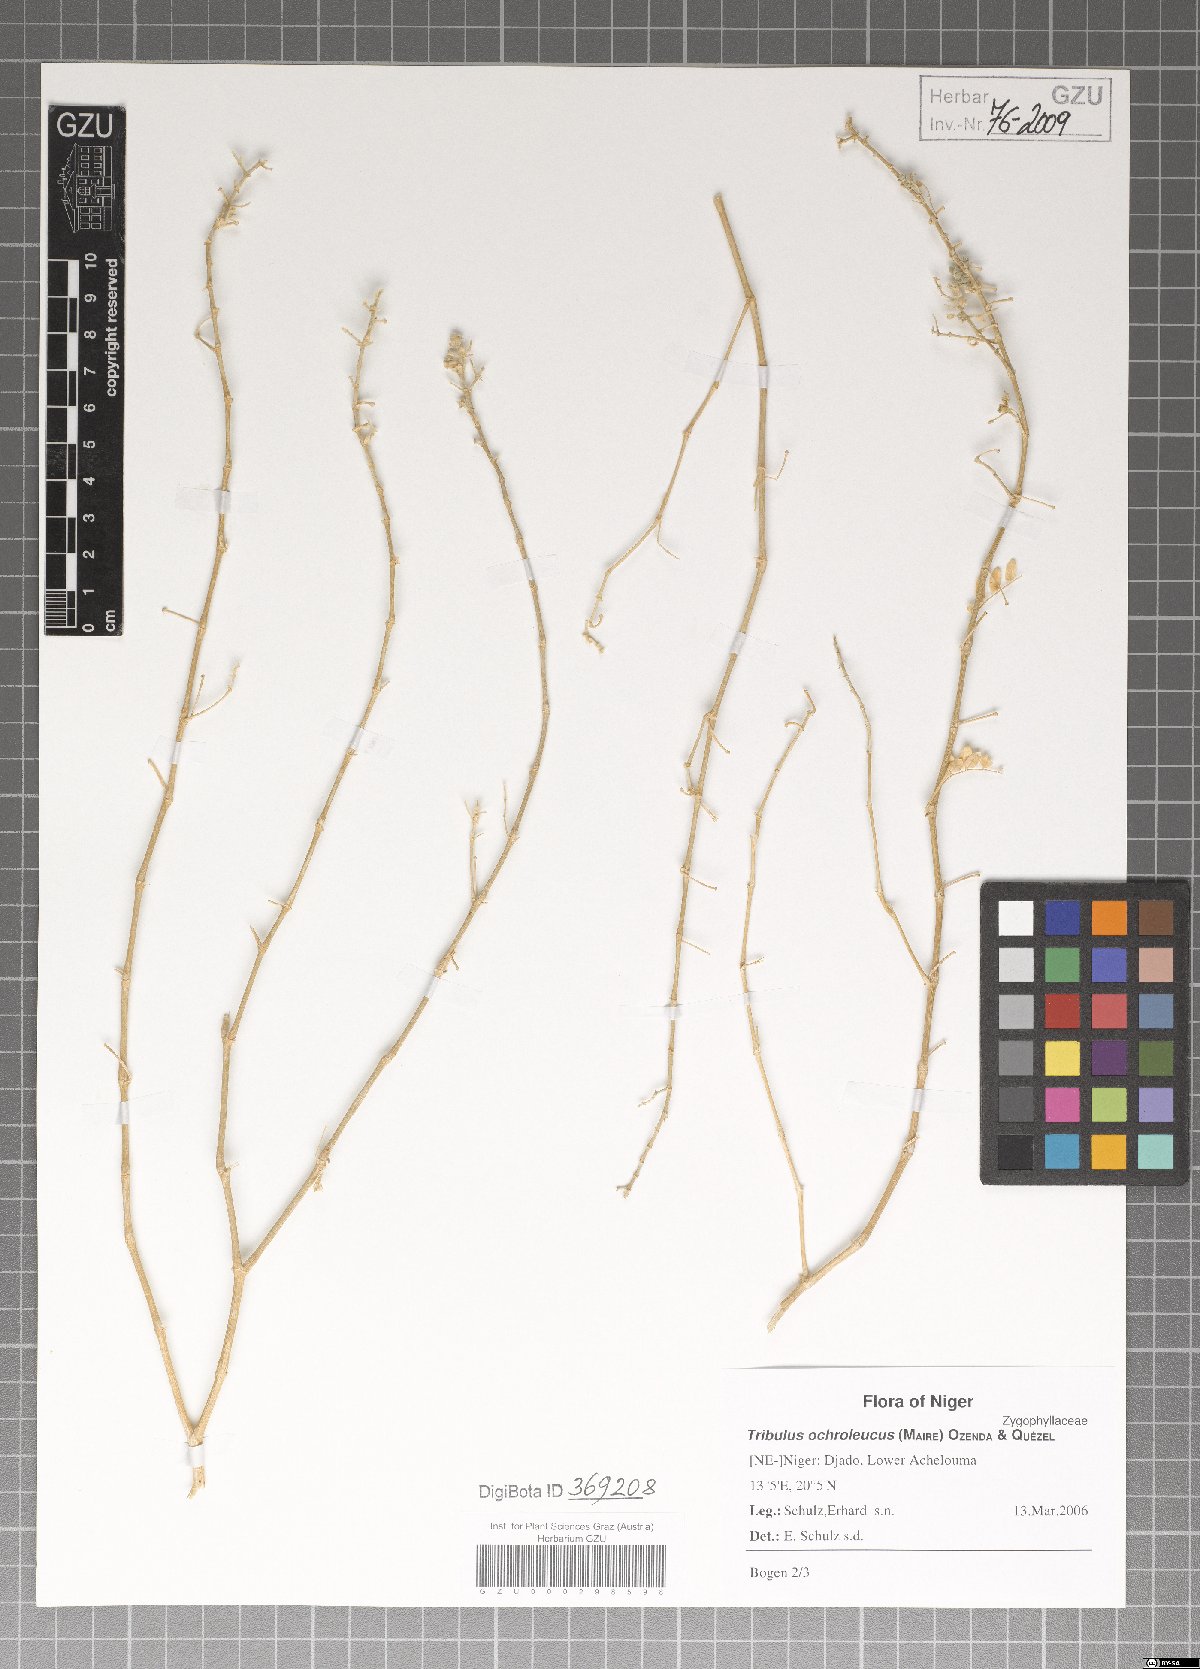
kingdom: Plantae
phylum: Tracheophyta
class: Magnoliopsida
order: Zygophyllales
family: Zygophyllaceae
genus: Tribulus
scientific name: Tribulus ochroleucus
